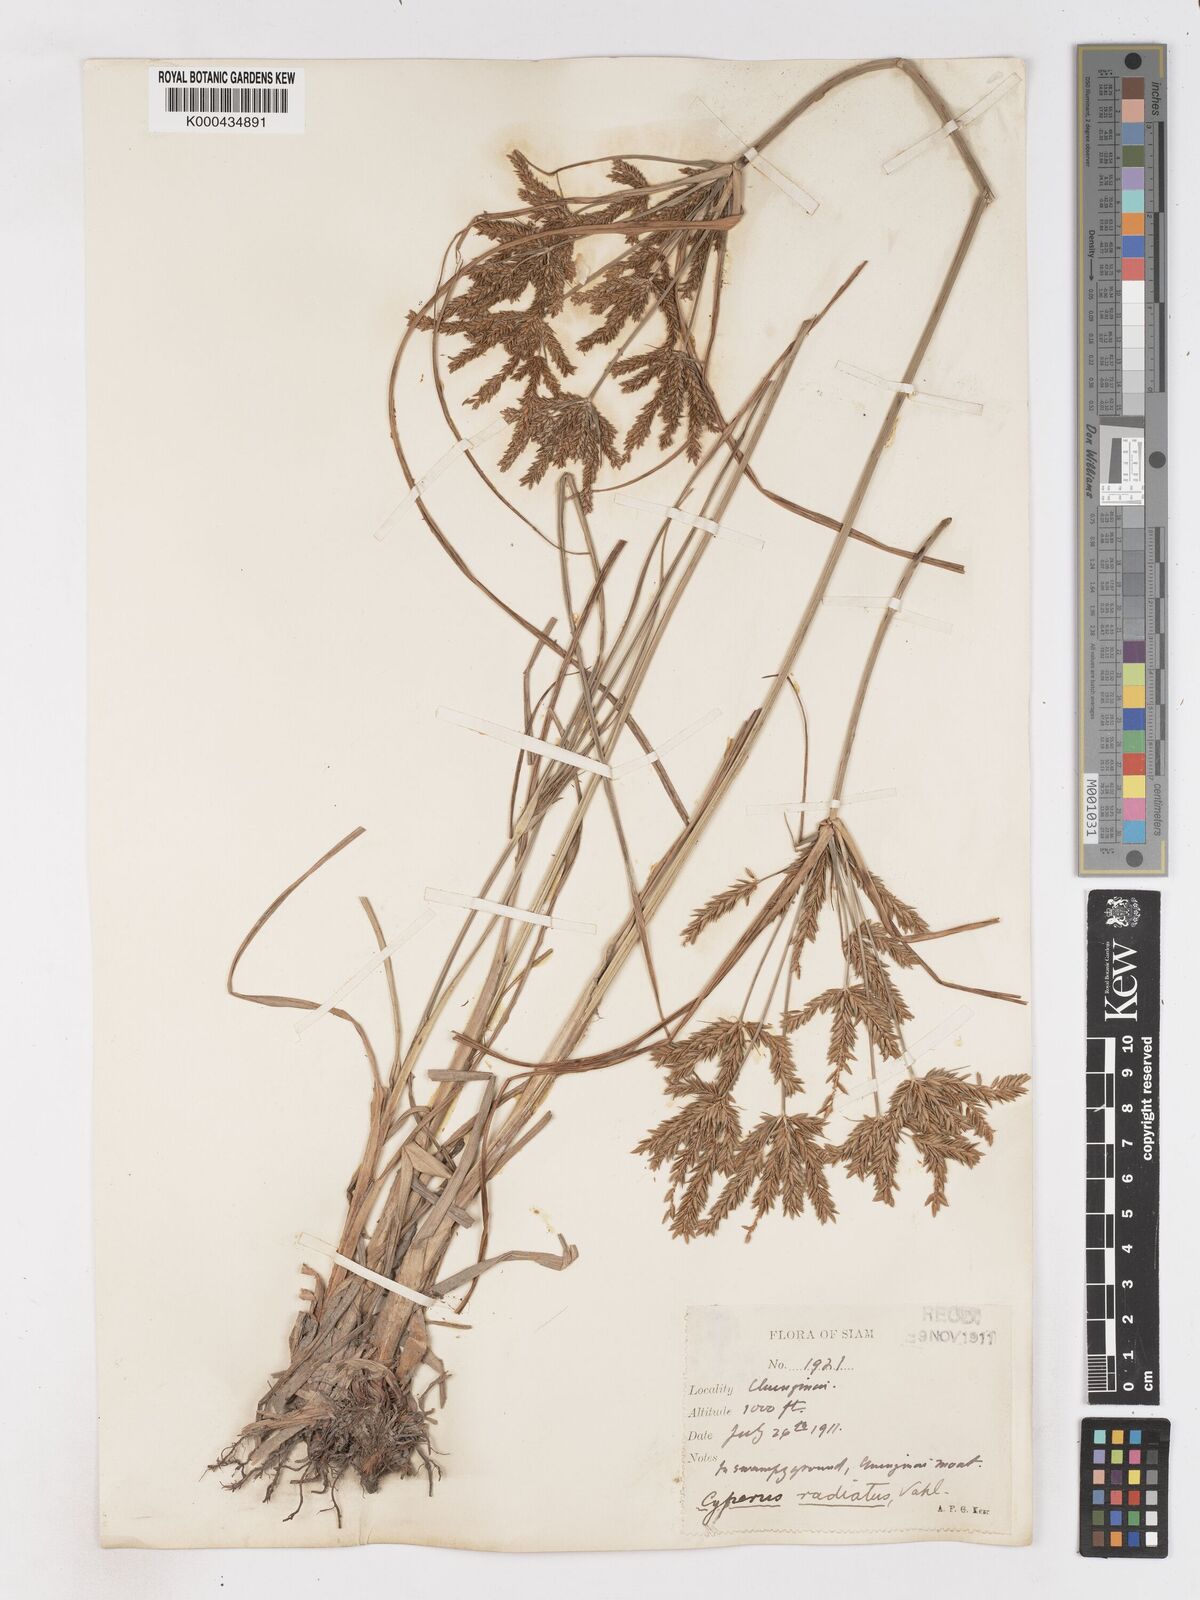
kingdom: Plantae
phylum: Tracheophyta
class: Liliopsida
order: Poales
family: Cyperaceae
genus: Cyperus
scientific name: Cyperus imbricatus
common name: Shingle flatsedge
